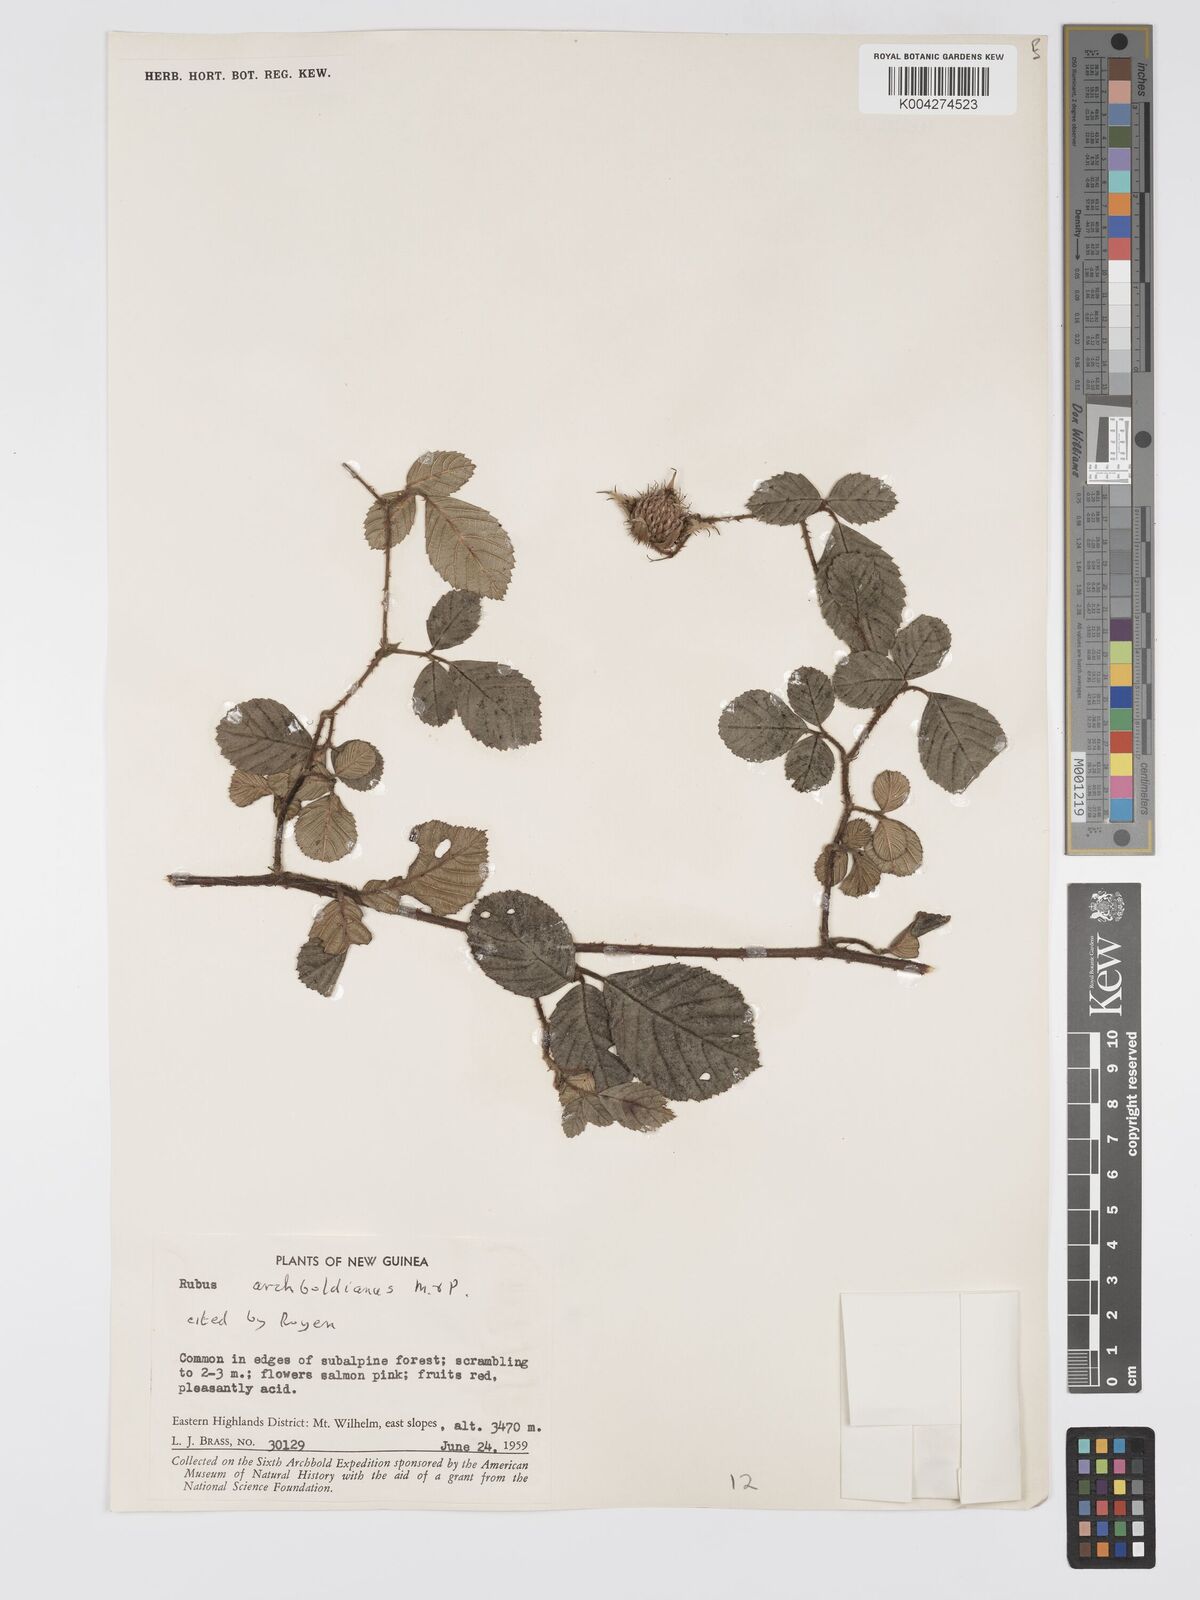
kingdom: Plantae
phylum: Tracheophyta
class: Magnoliopsida
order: Rosales
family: Rosaceae
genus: Rubus
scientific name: Rubus archboldianus
